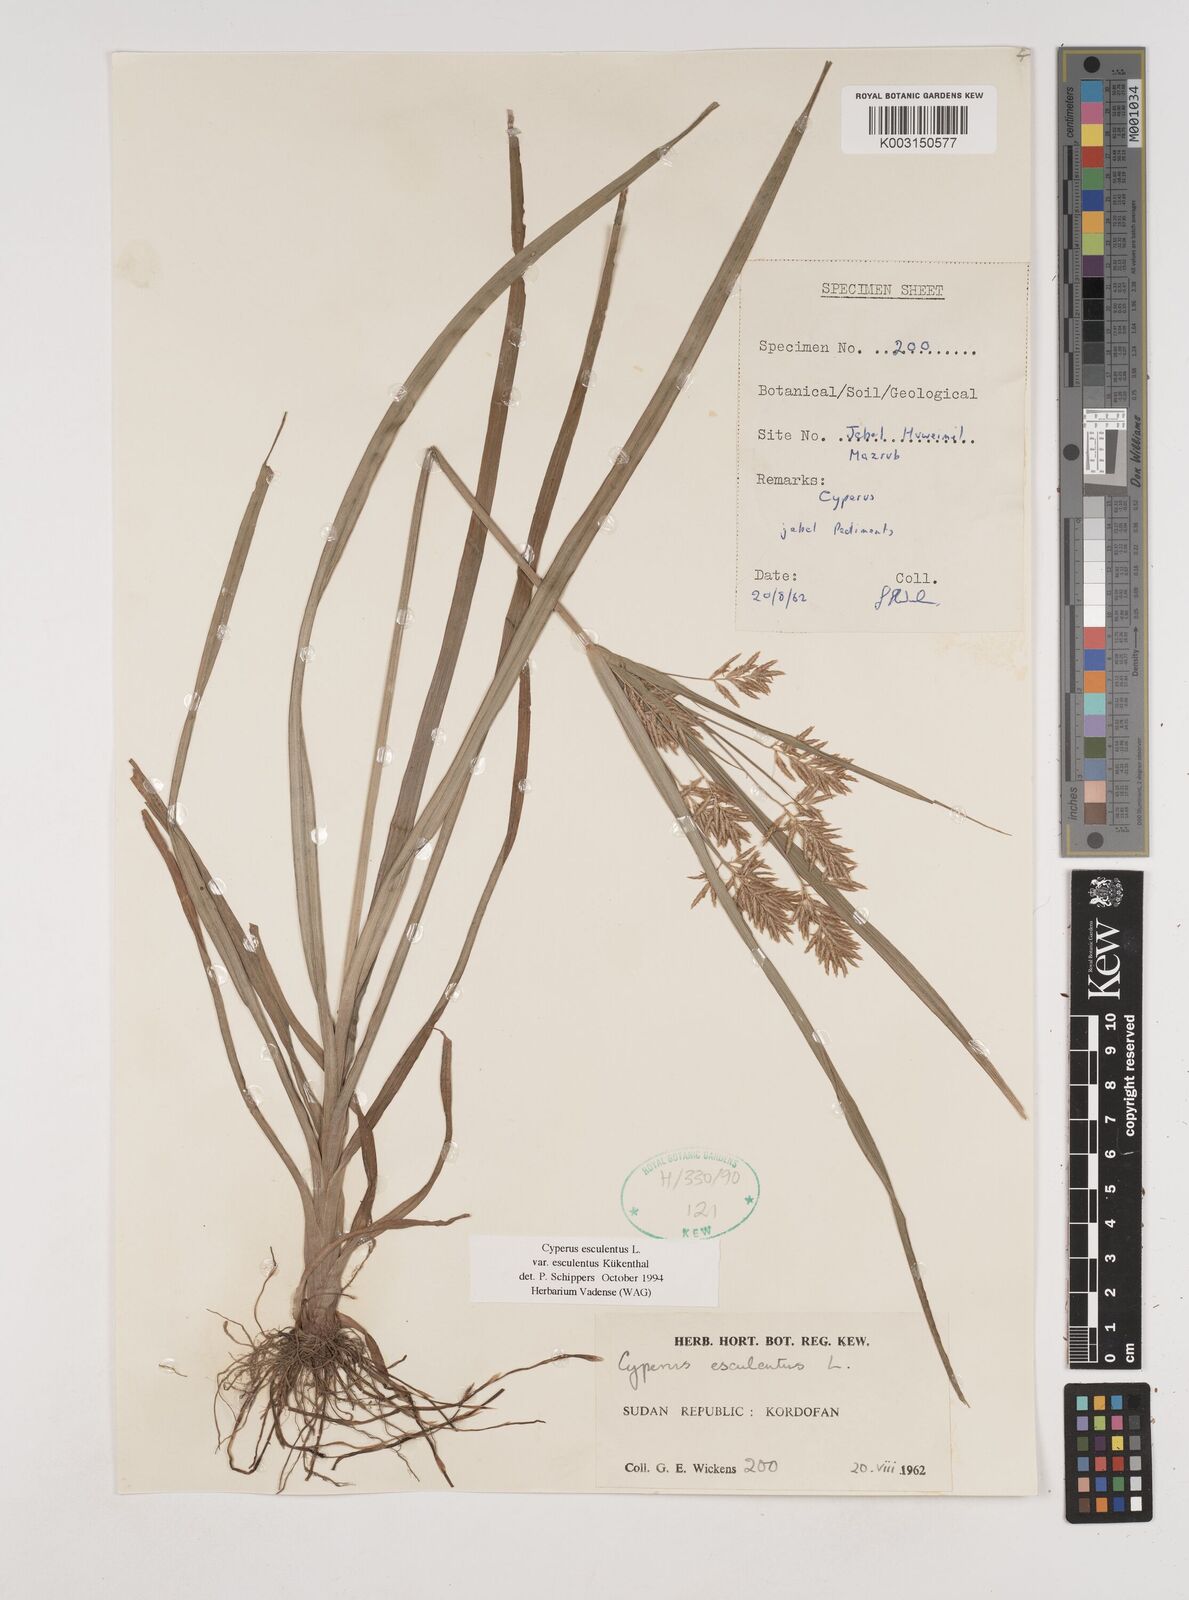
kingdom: Plantae
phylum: Tracheophyta
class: Liliopsida
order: Poales
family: Cyperaceae
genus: Cyperus
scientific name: Cyperus esculentus
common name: Yellow nutsedge
